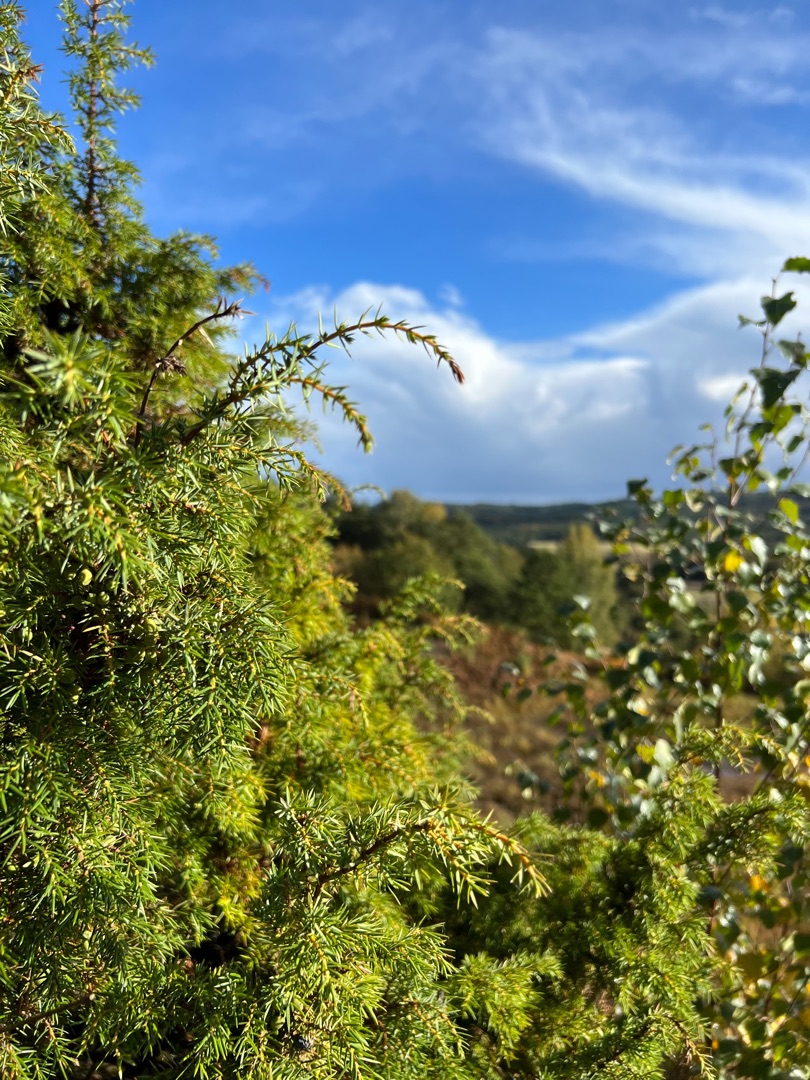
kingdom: Plantae
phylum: Tracheophyta
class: Pinopsida
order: Pinales
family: Cupressaceae
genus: Juniperus
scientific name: Juniperus communis
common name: Almindelig ene
